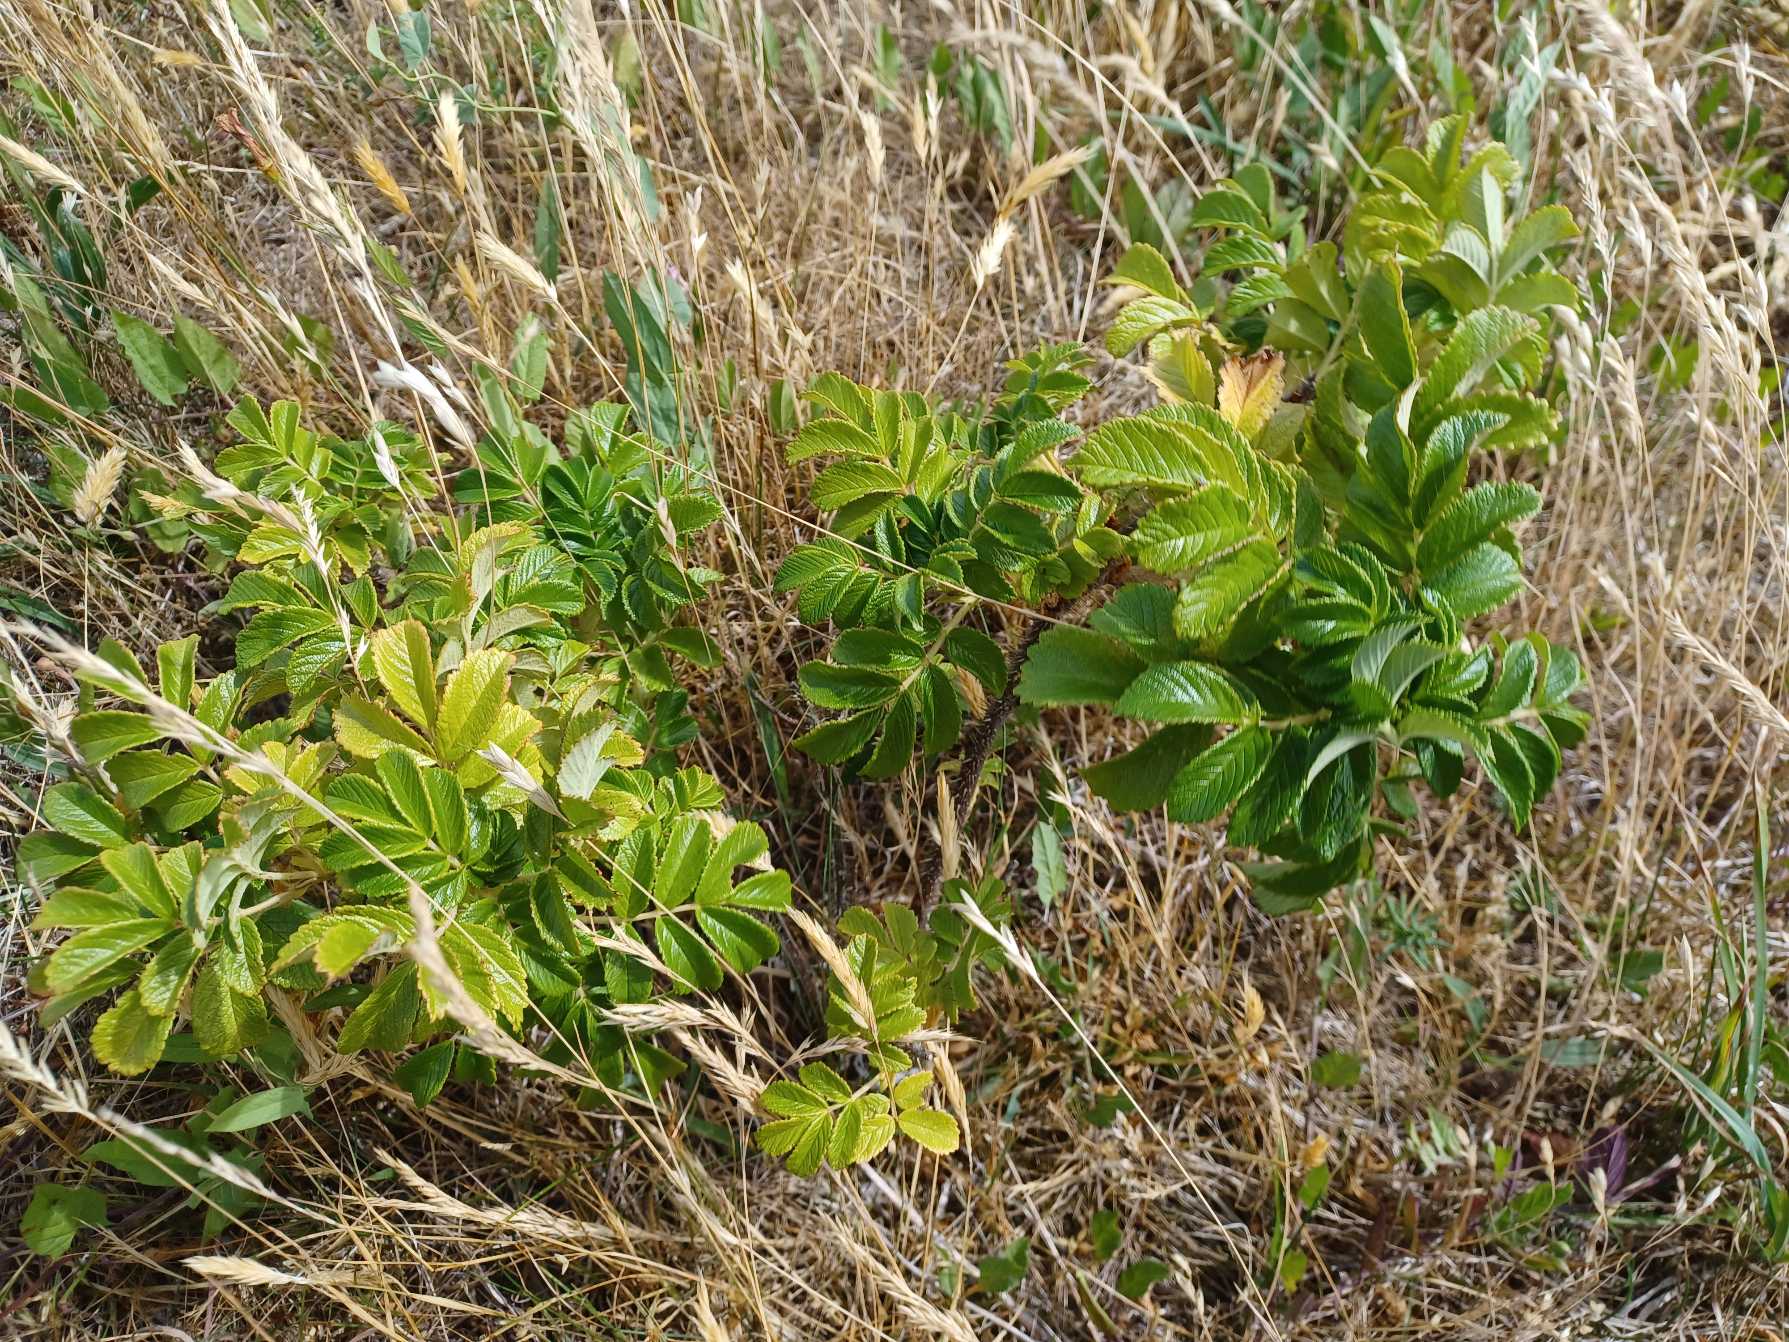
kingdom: Plantae
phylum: Tracheophyta
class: Magnoliopsida
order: Rosales
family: Rosaceae
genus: Rosa
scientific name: Rosa rugosa
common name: Rynket rose
